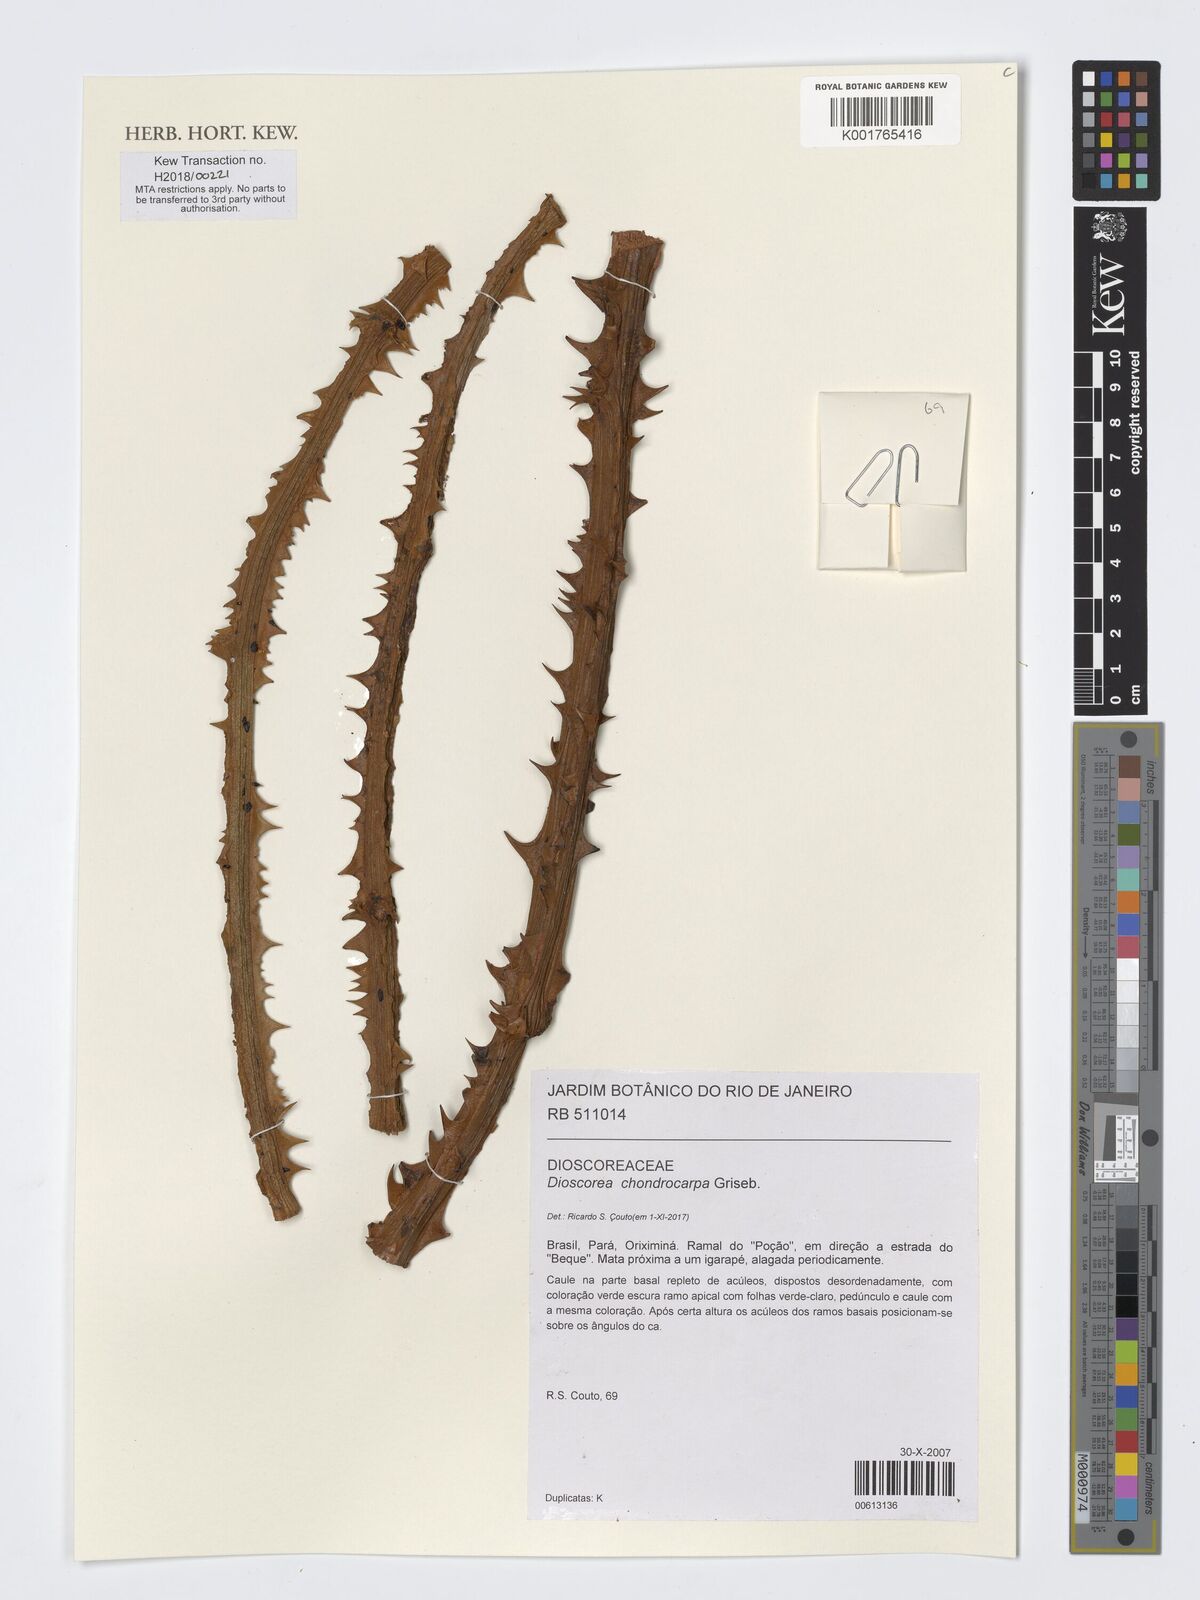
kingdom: Plantae
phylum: Tracheophyta
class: Liliopsida
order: Dioscoreales
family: Dioscoreaceae
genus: Dioscorea
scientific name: Dioscorea chondrocarpa
